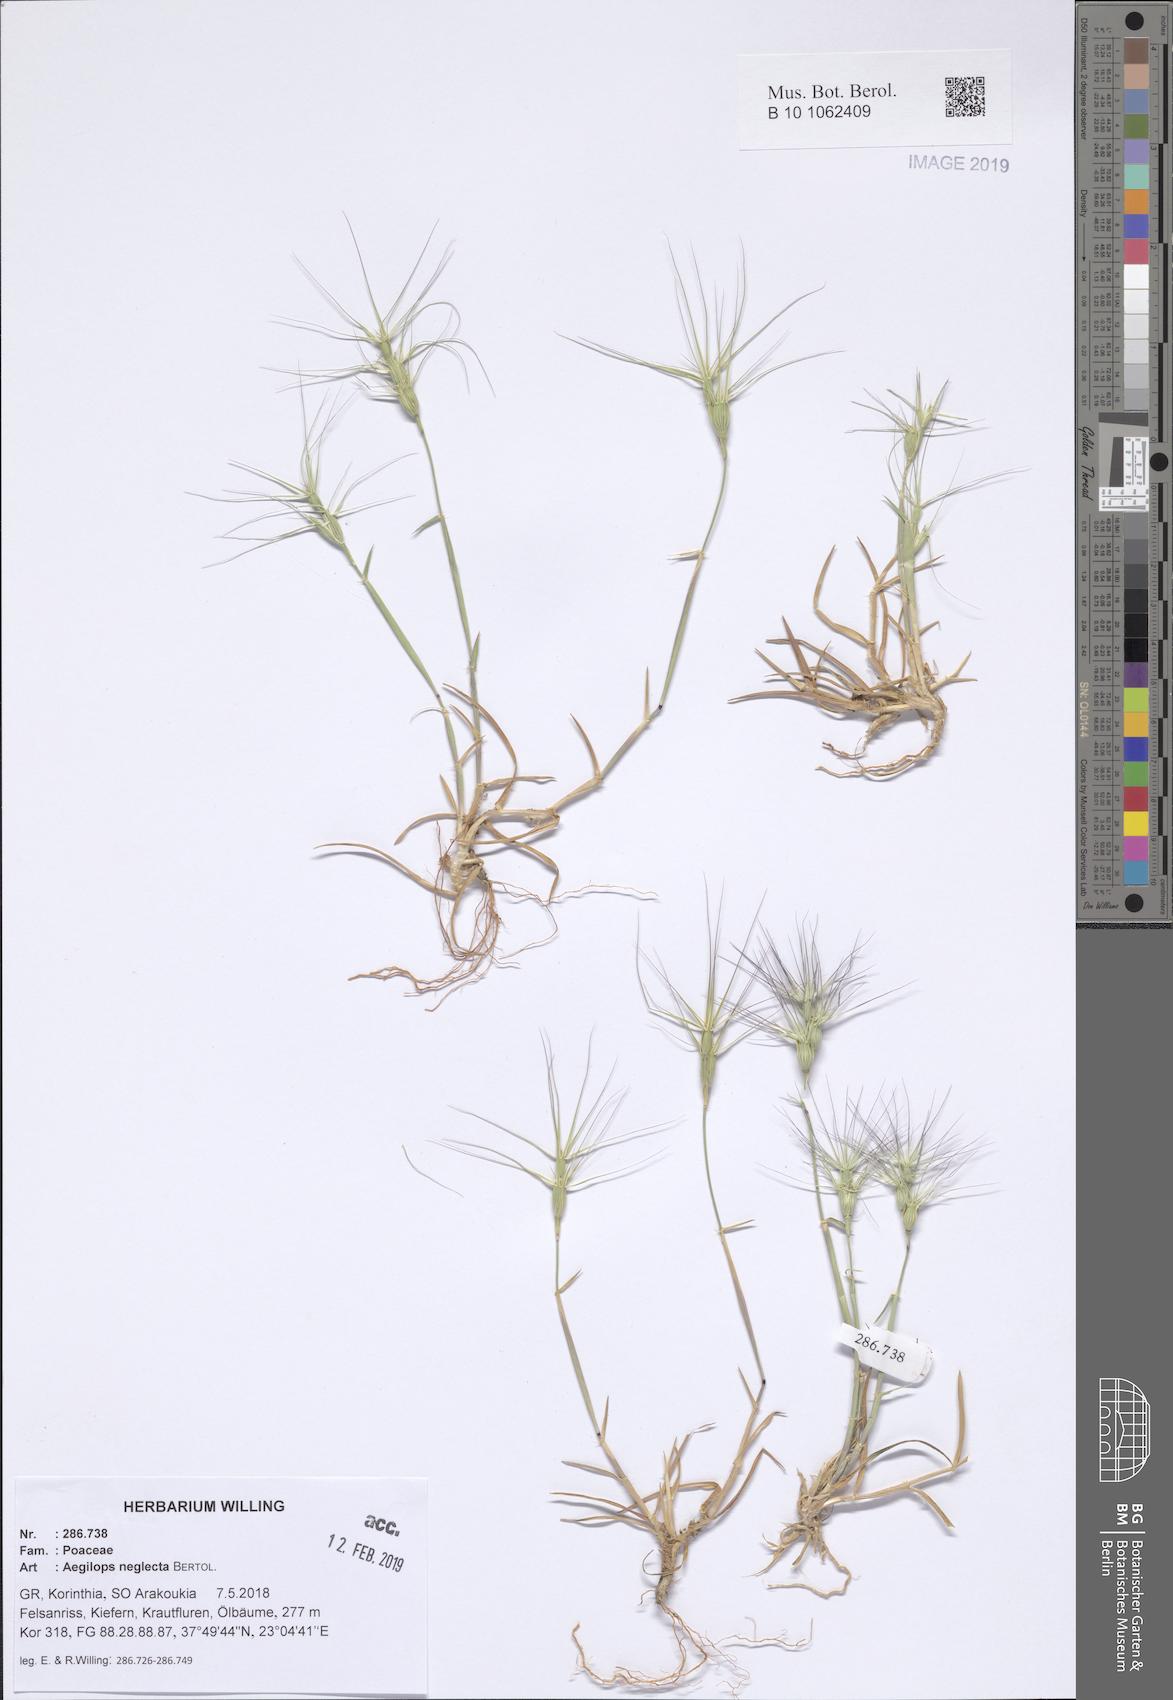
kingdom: Plantae
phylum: Tracheophyta
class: Liliopsida
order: Poales
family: Poaceae
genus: Aegilops
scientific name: Aegilops neglecta
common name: Three-awn goat grass
